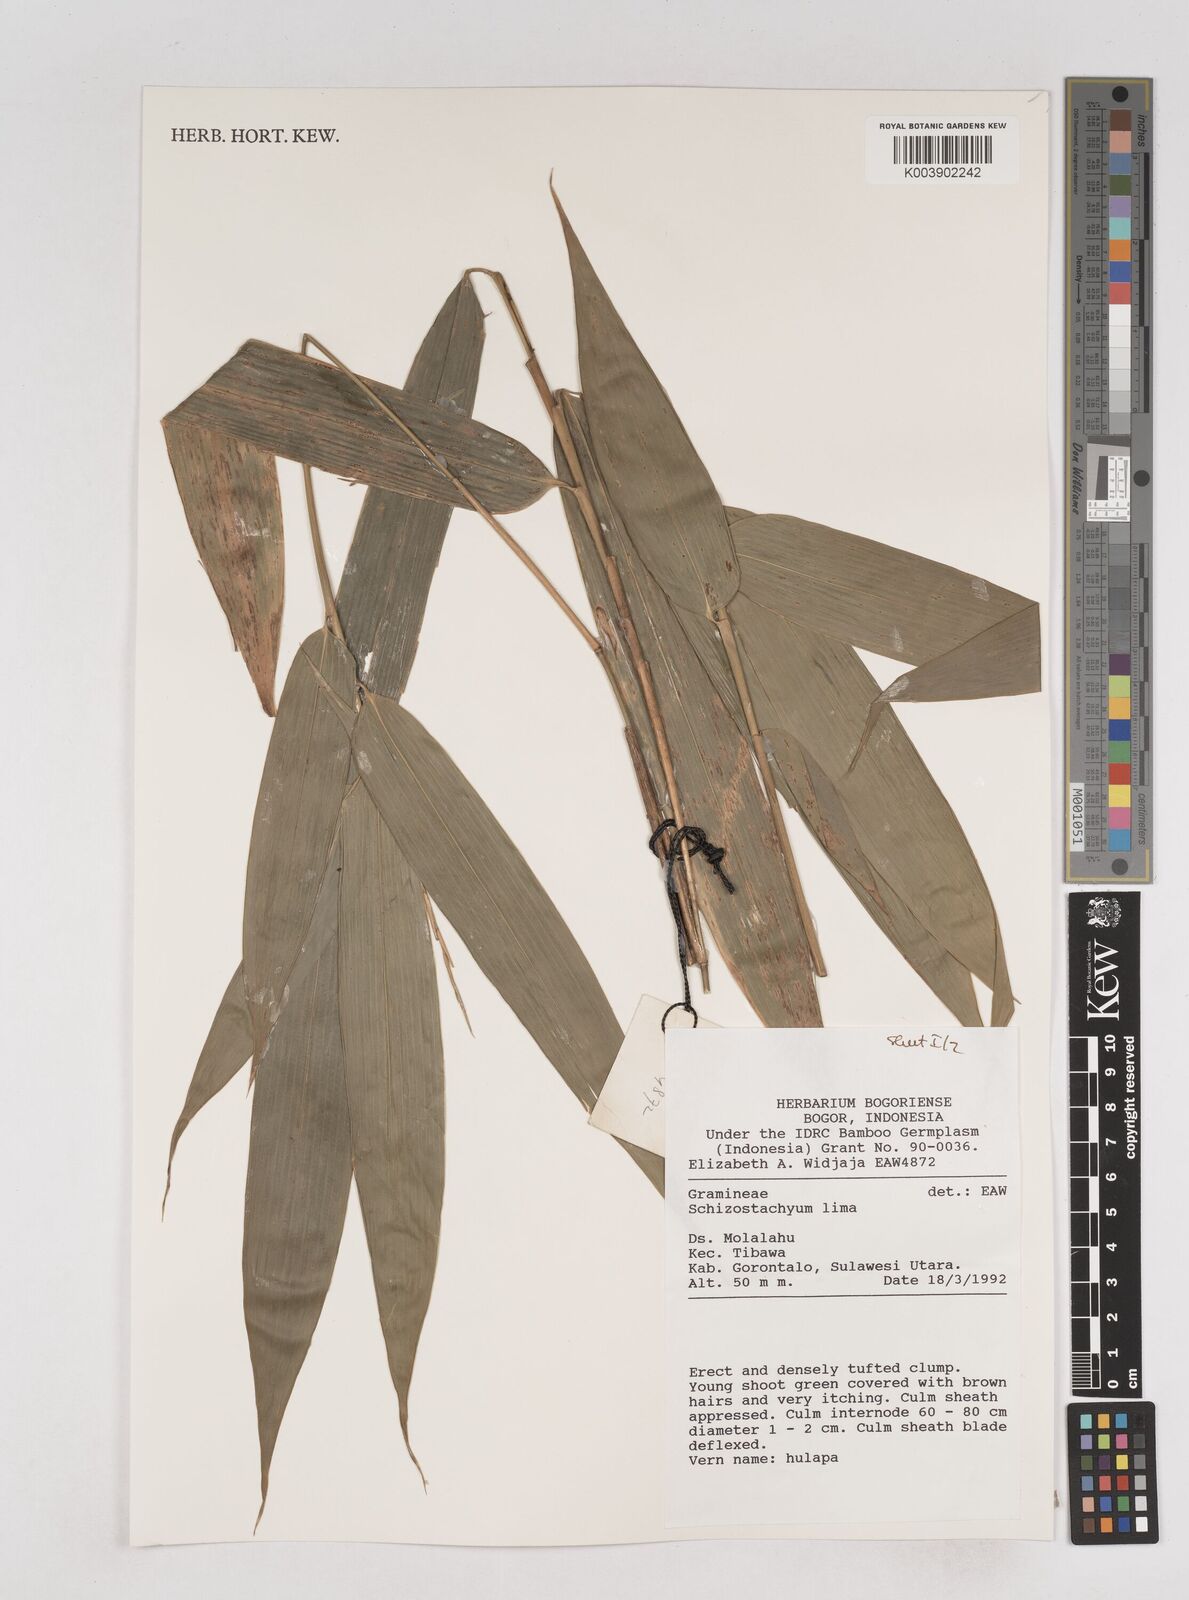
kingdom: Plantae
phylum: Tracheophyta
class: Liliopsida
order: Poales
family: Poaceae
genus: Schizostachyum
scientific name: Schizostachyum lima
